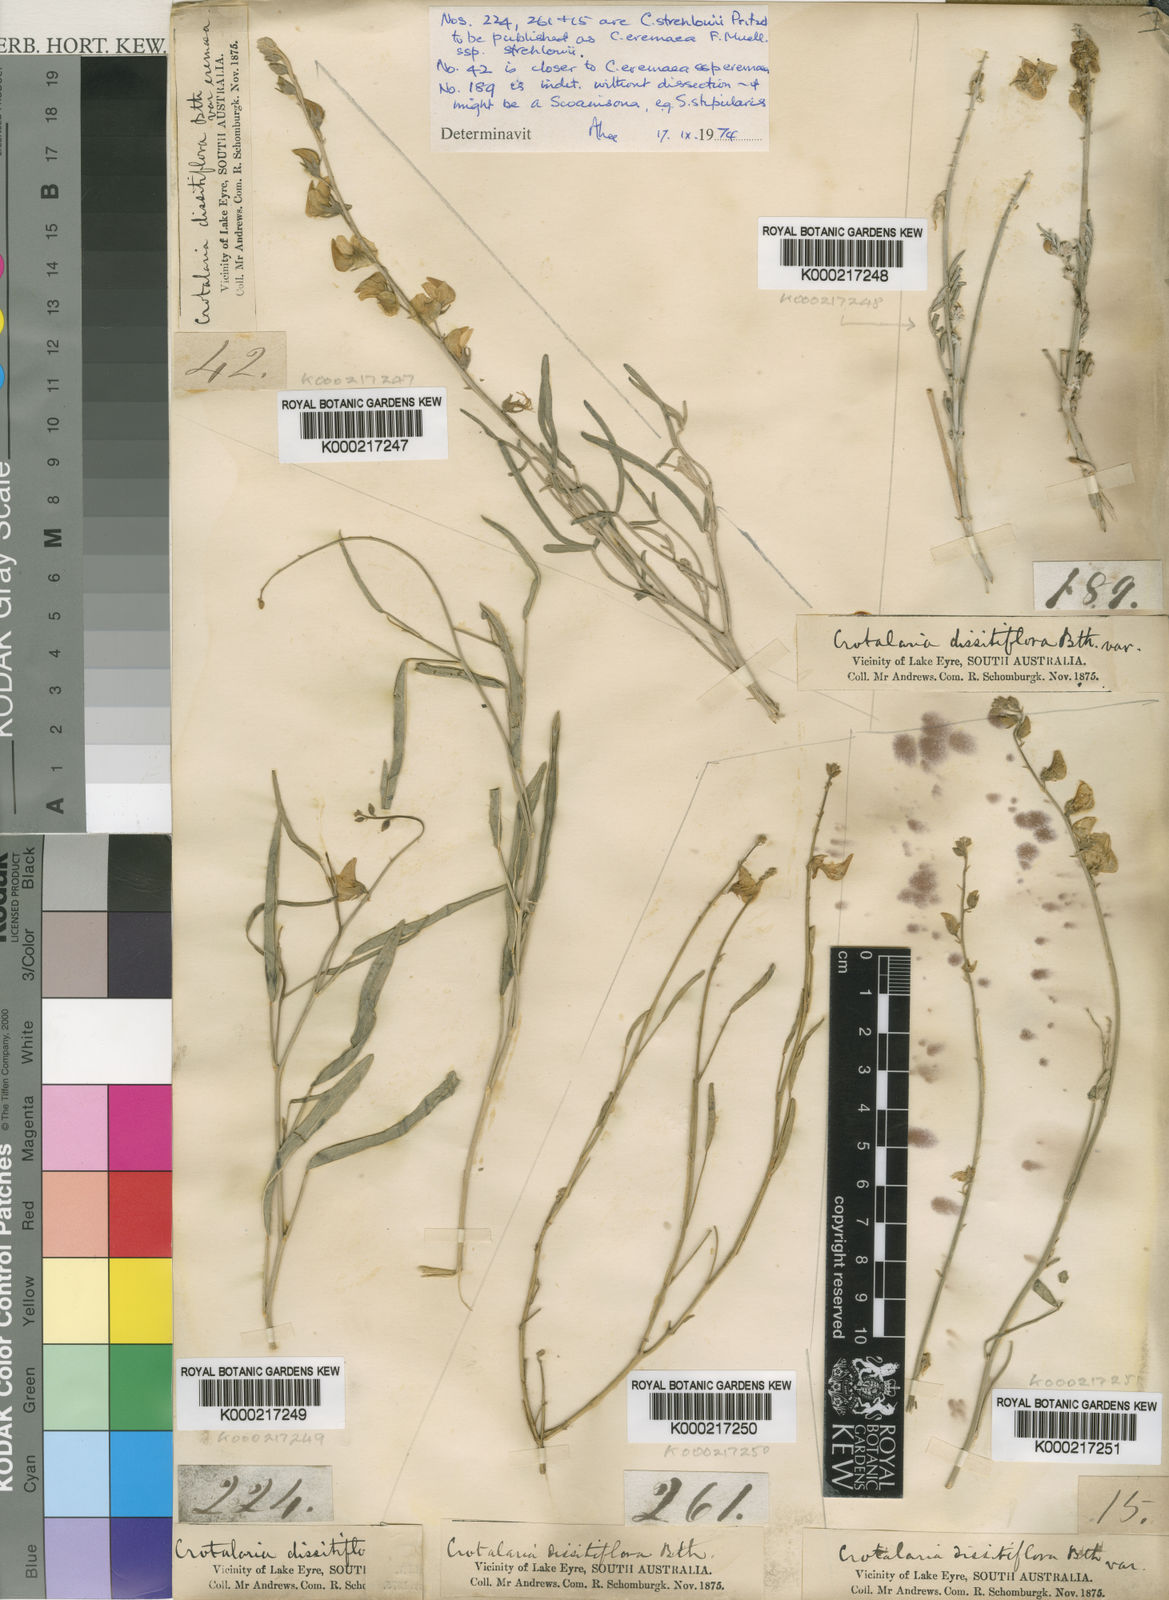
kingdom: Plantae
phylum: Tracheophyta
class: Magnoliopsida
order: Fabales
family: Fabaceae
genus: Crotalaria
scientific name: Crotalaria eremaea
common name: Bluebush pea
